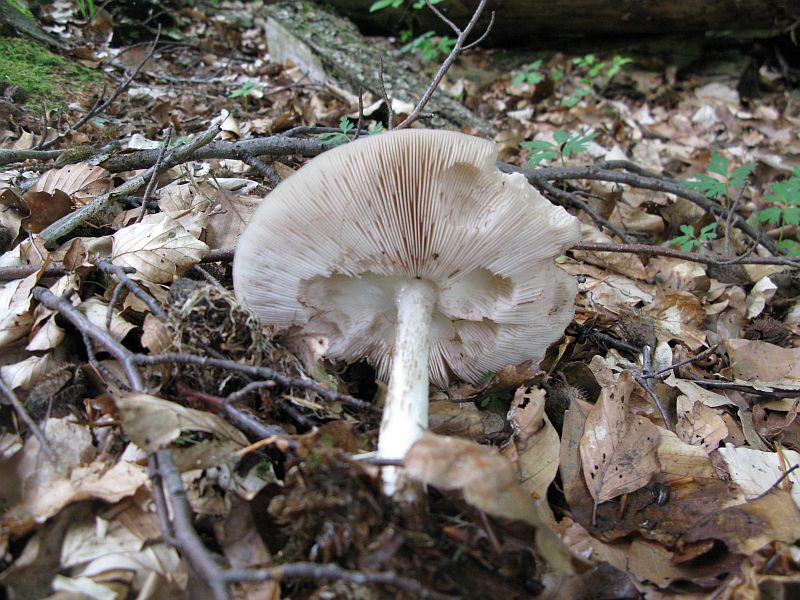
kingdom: Fungi
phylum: Basidiomycota
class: Agaricomycetes
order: Agaricales
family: Pluteaceae
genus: Pluteus
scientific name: Pluteus cervinus
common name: sodfarvet skærmhat
